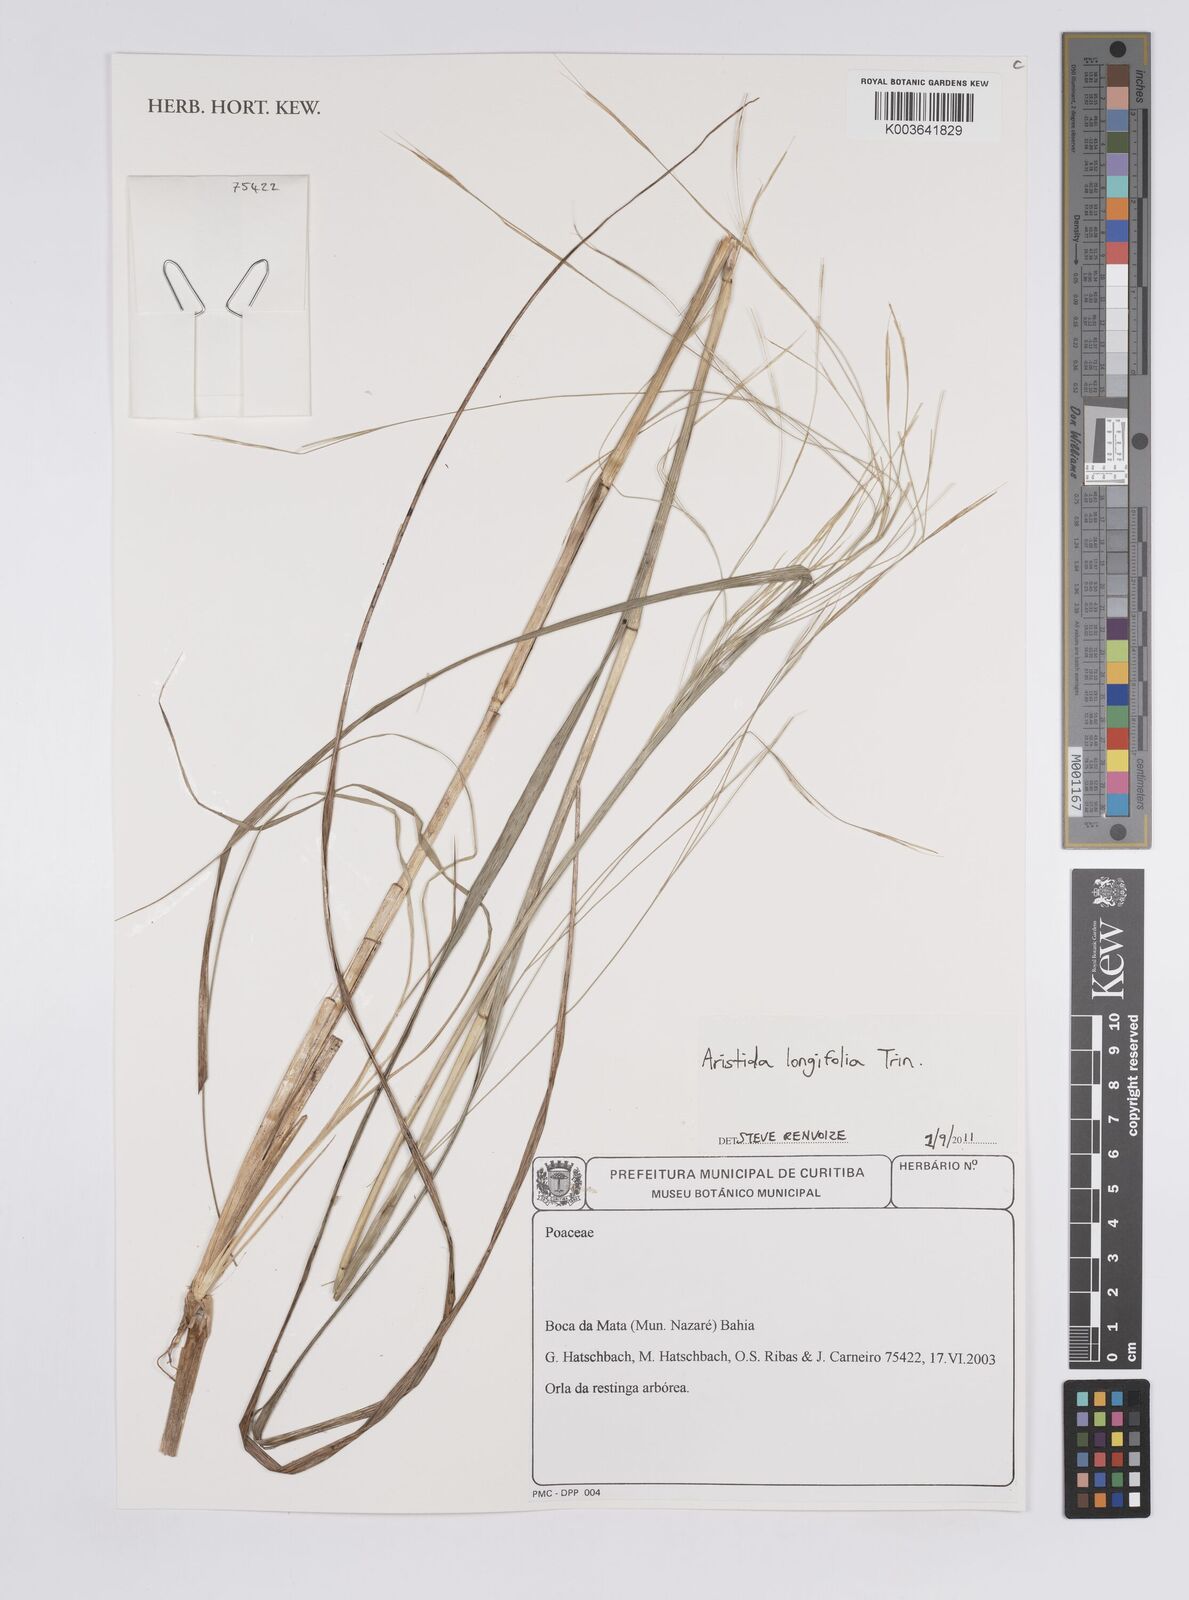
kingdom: Plantae
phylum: Tracheophyta
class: Liliopsida
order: Poales
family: Poaceae
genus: Aristida
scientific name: Aristida longifolia
